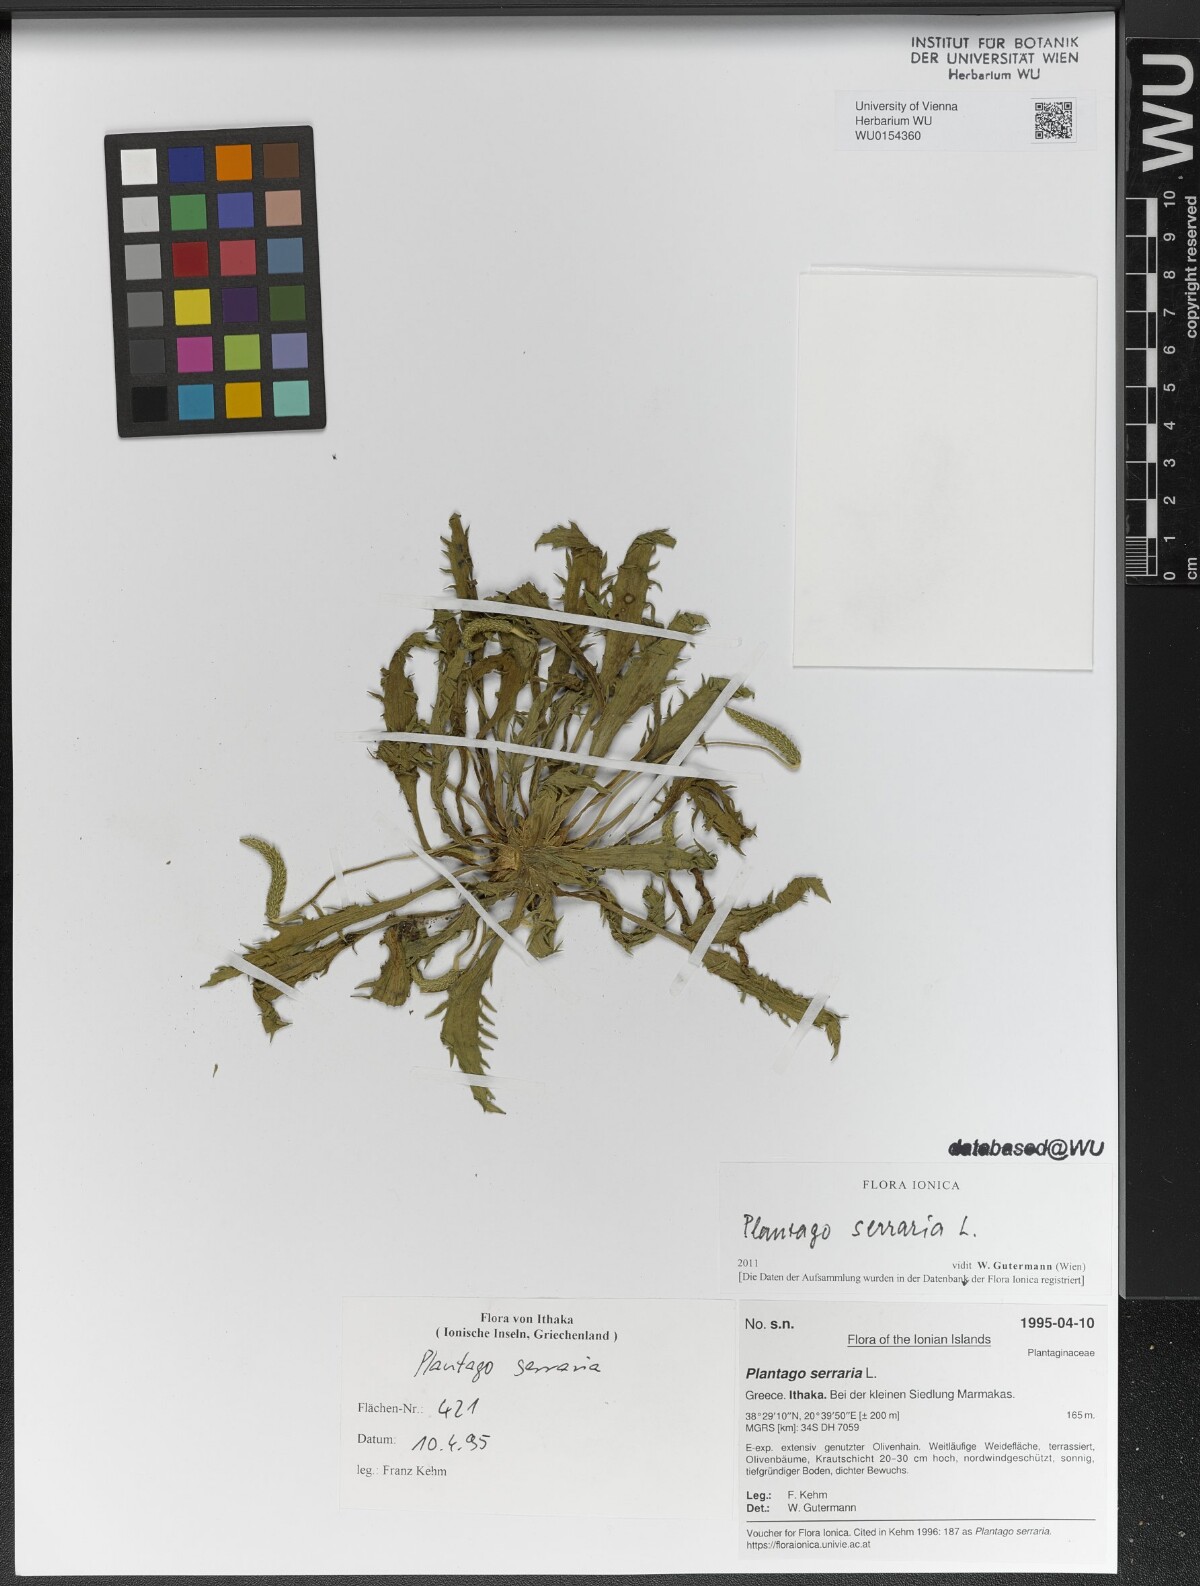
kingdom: Plantae
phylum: Tracheophyta
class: Magnoliopsida
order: Lamiales
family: Plantaginaceae
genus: Plantago
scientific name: Plantago serraria
